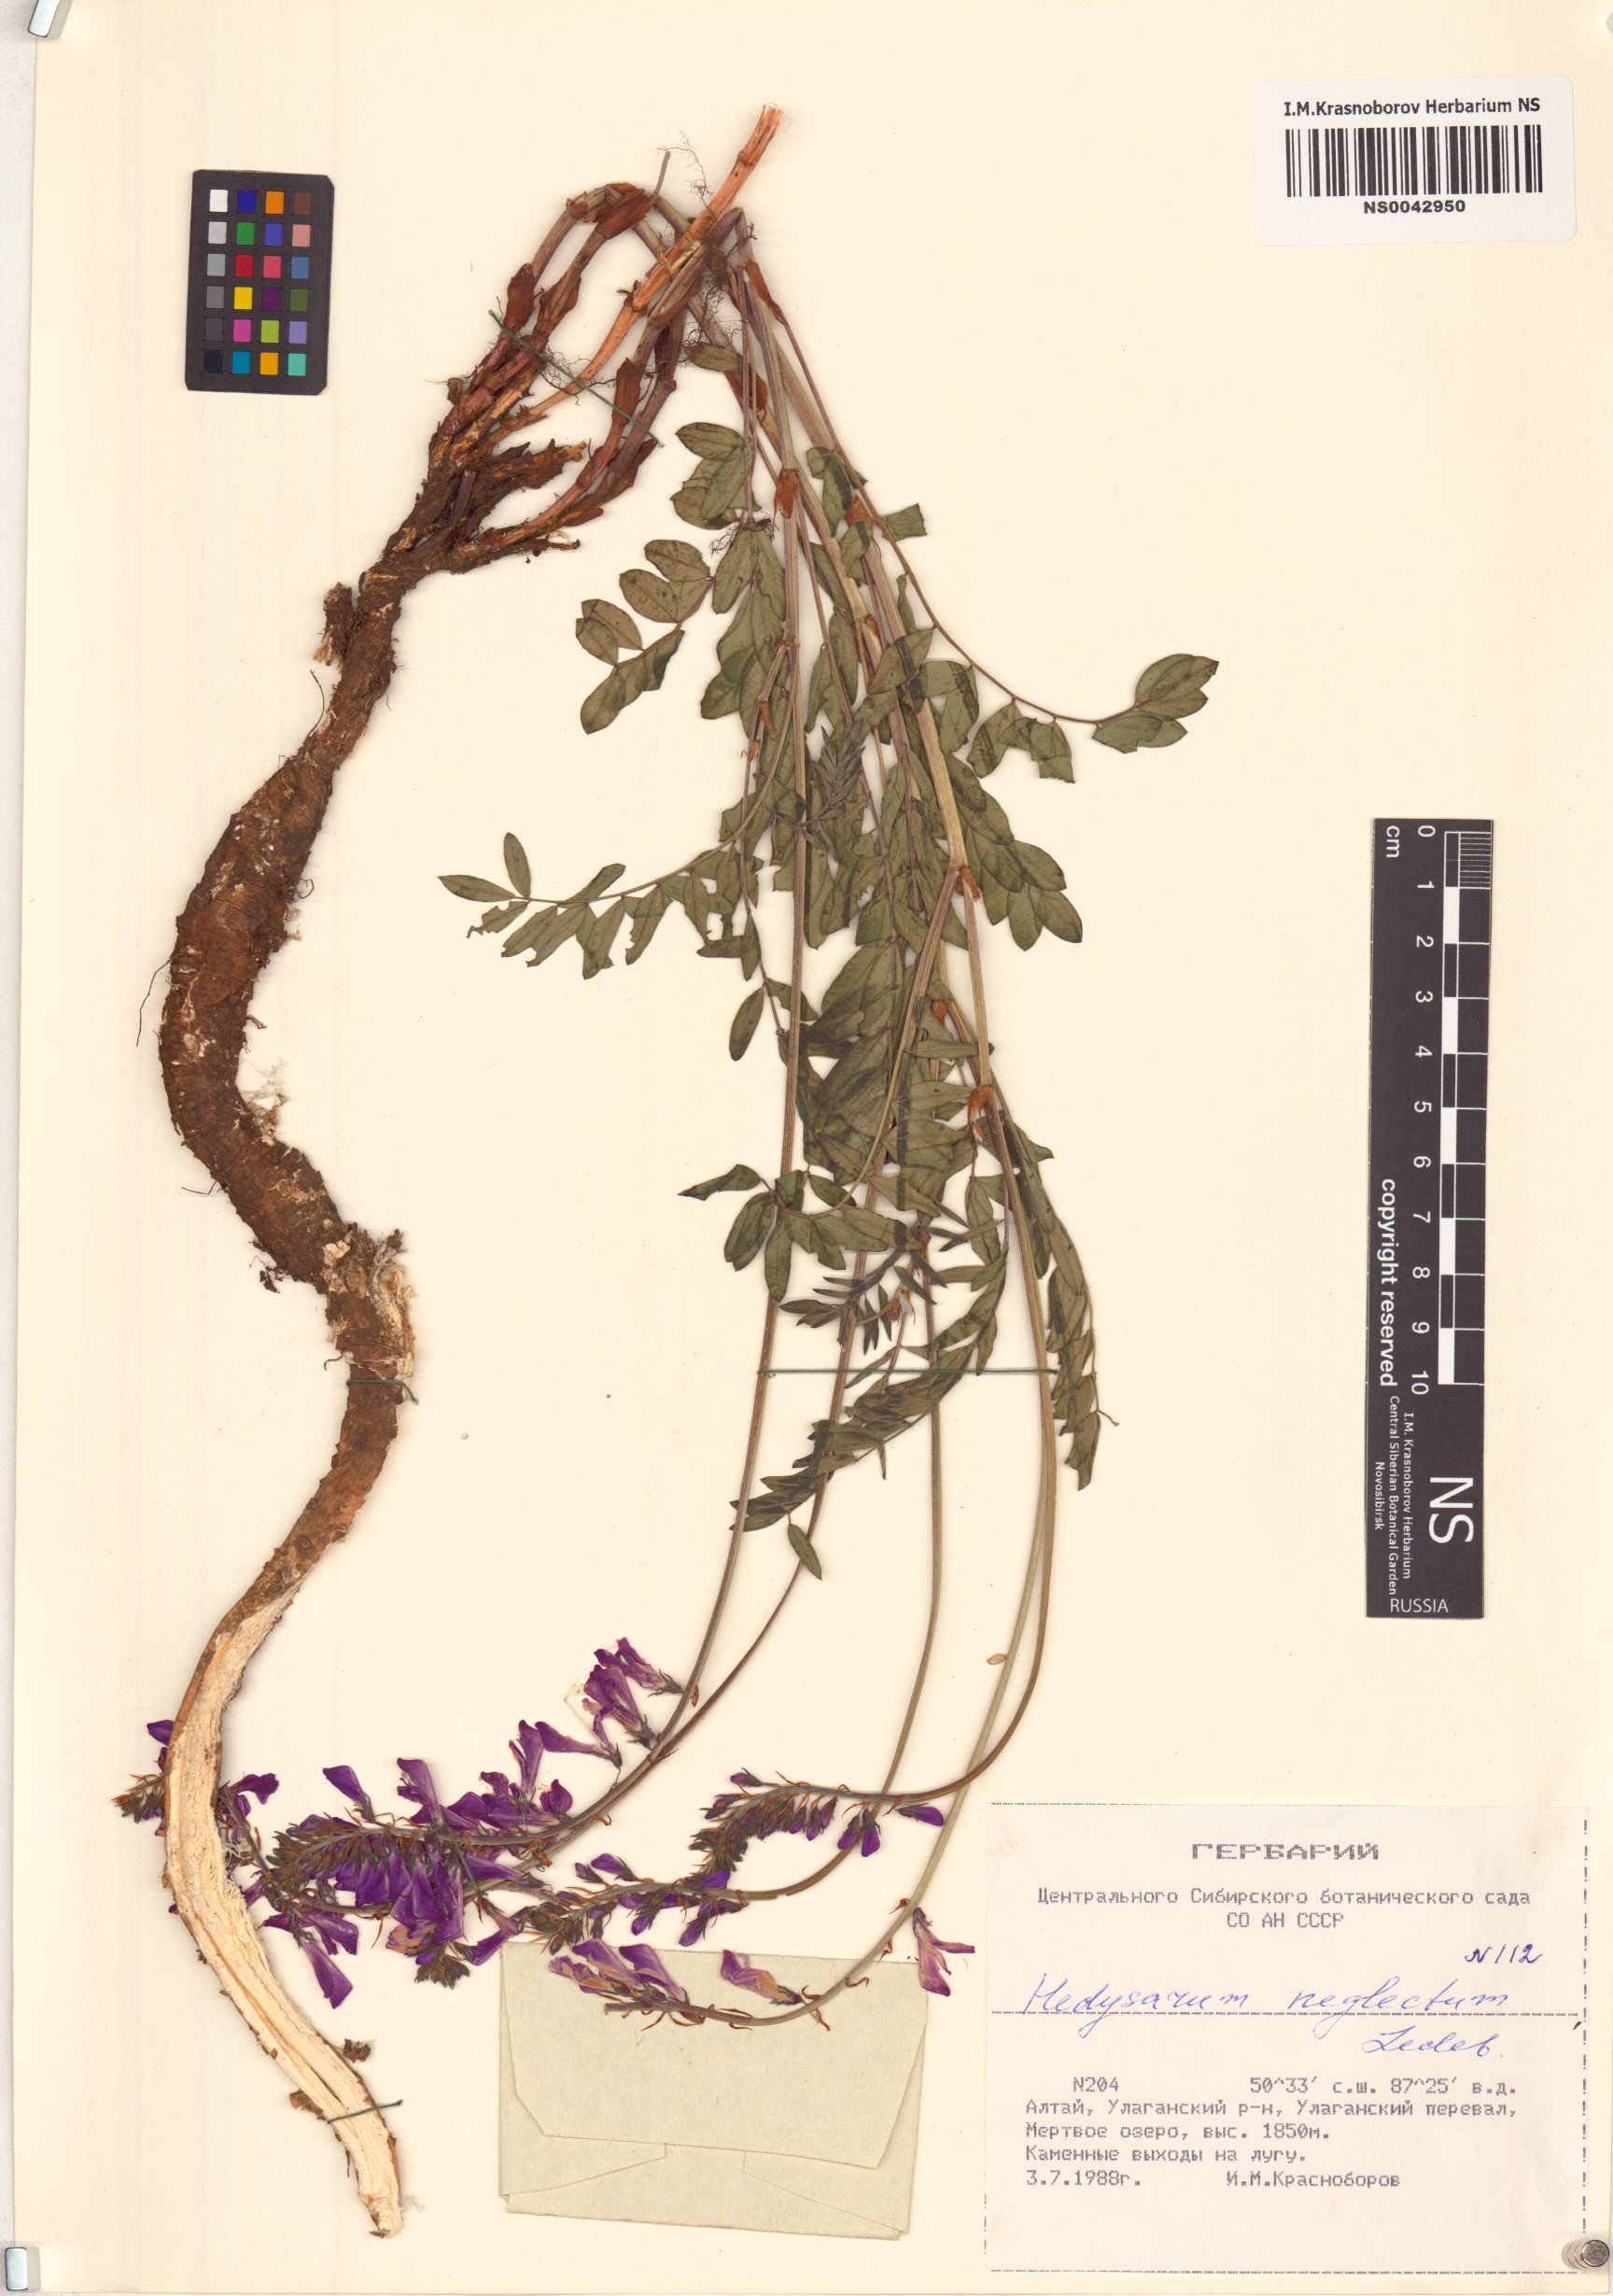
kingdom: Plantae
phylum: Tracheophyta
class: Magnoliopsida
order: Fabales
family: Fabaceae
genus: Hedysarum
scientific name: Hedysarum neglectum
